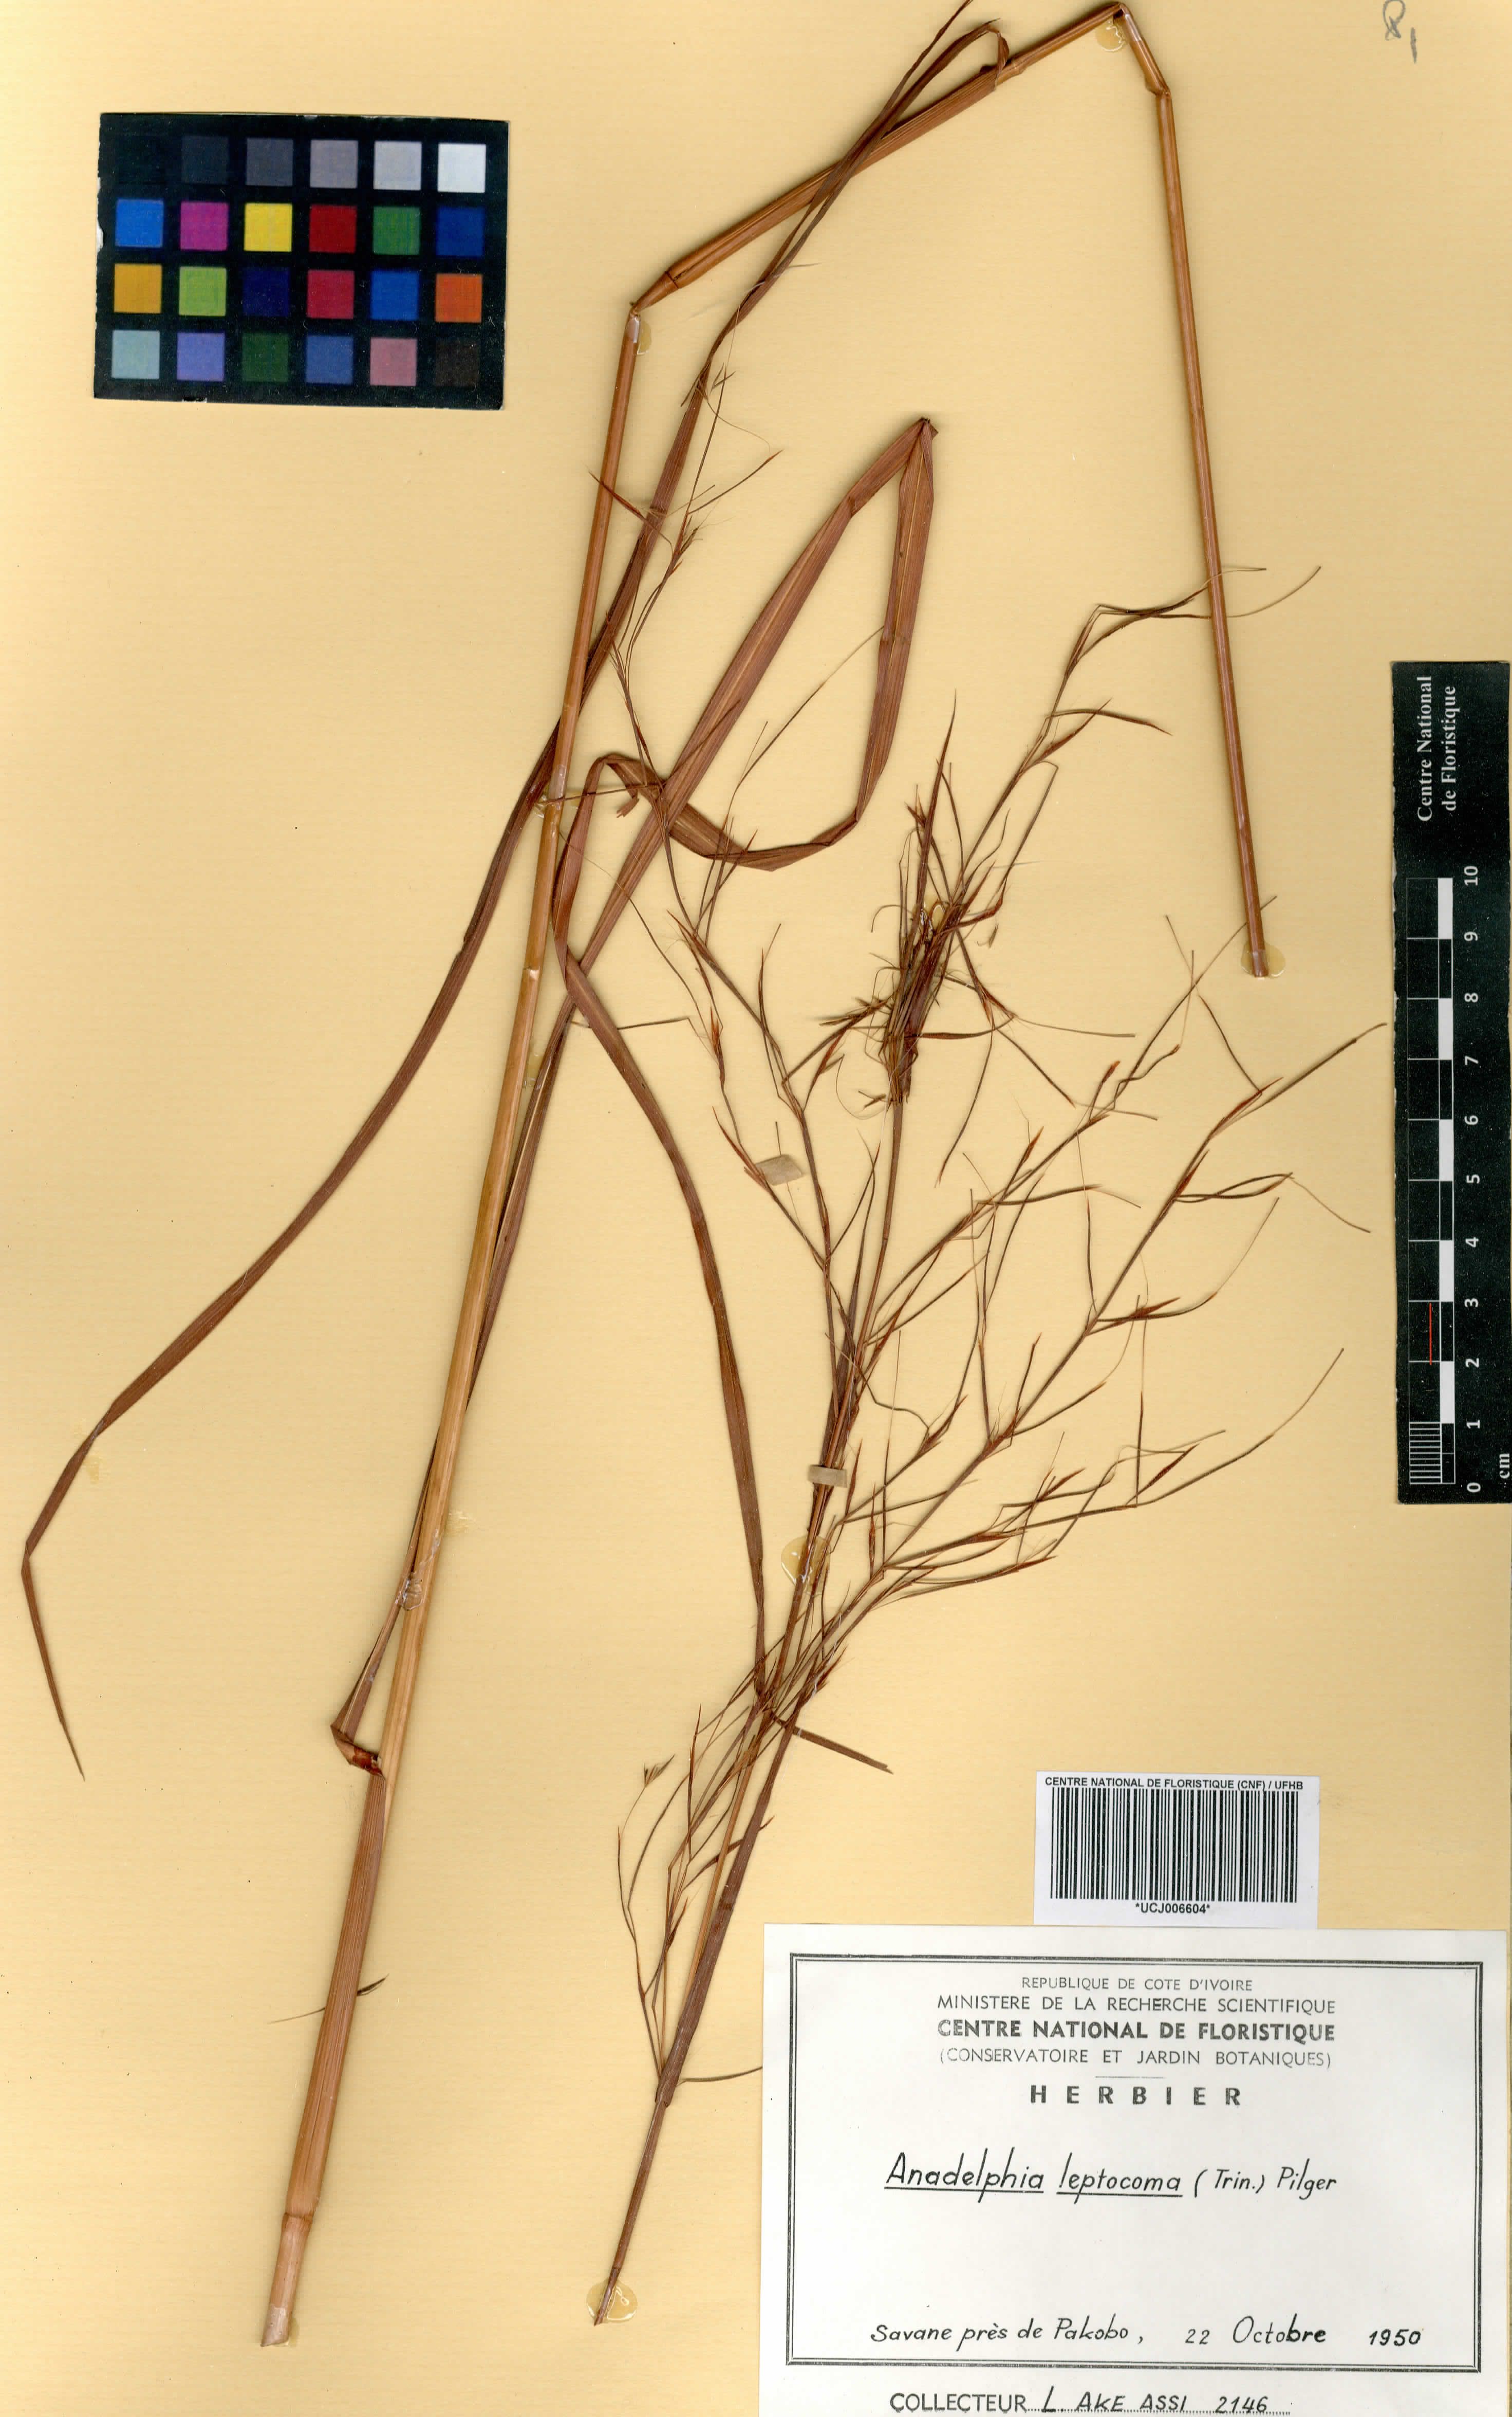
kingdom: Plantae
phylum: Tracheophyta
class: Liliopsida
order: Poales
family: Poaceae
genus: Anadelphia
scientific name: Anadelphia leptocoma
